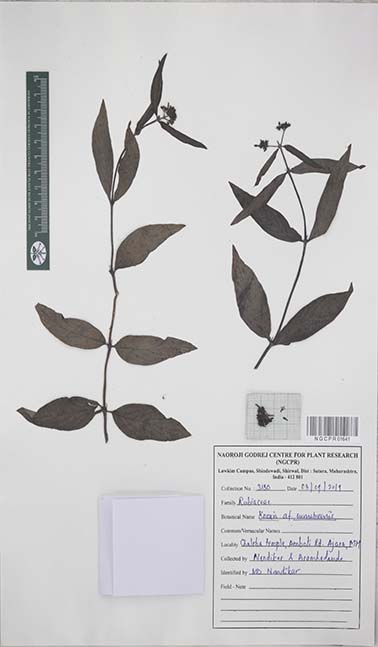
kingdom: Plantae
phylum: Tracheophyta
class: Magnoliopsida
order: Gentianales
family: Rubiaceae
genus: Knoxia
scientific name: Knoxia
